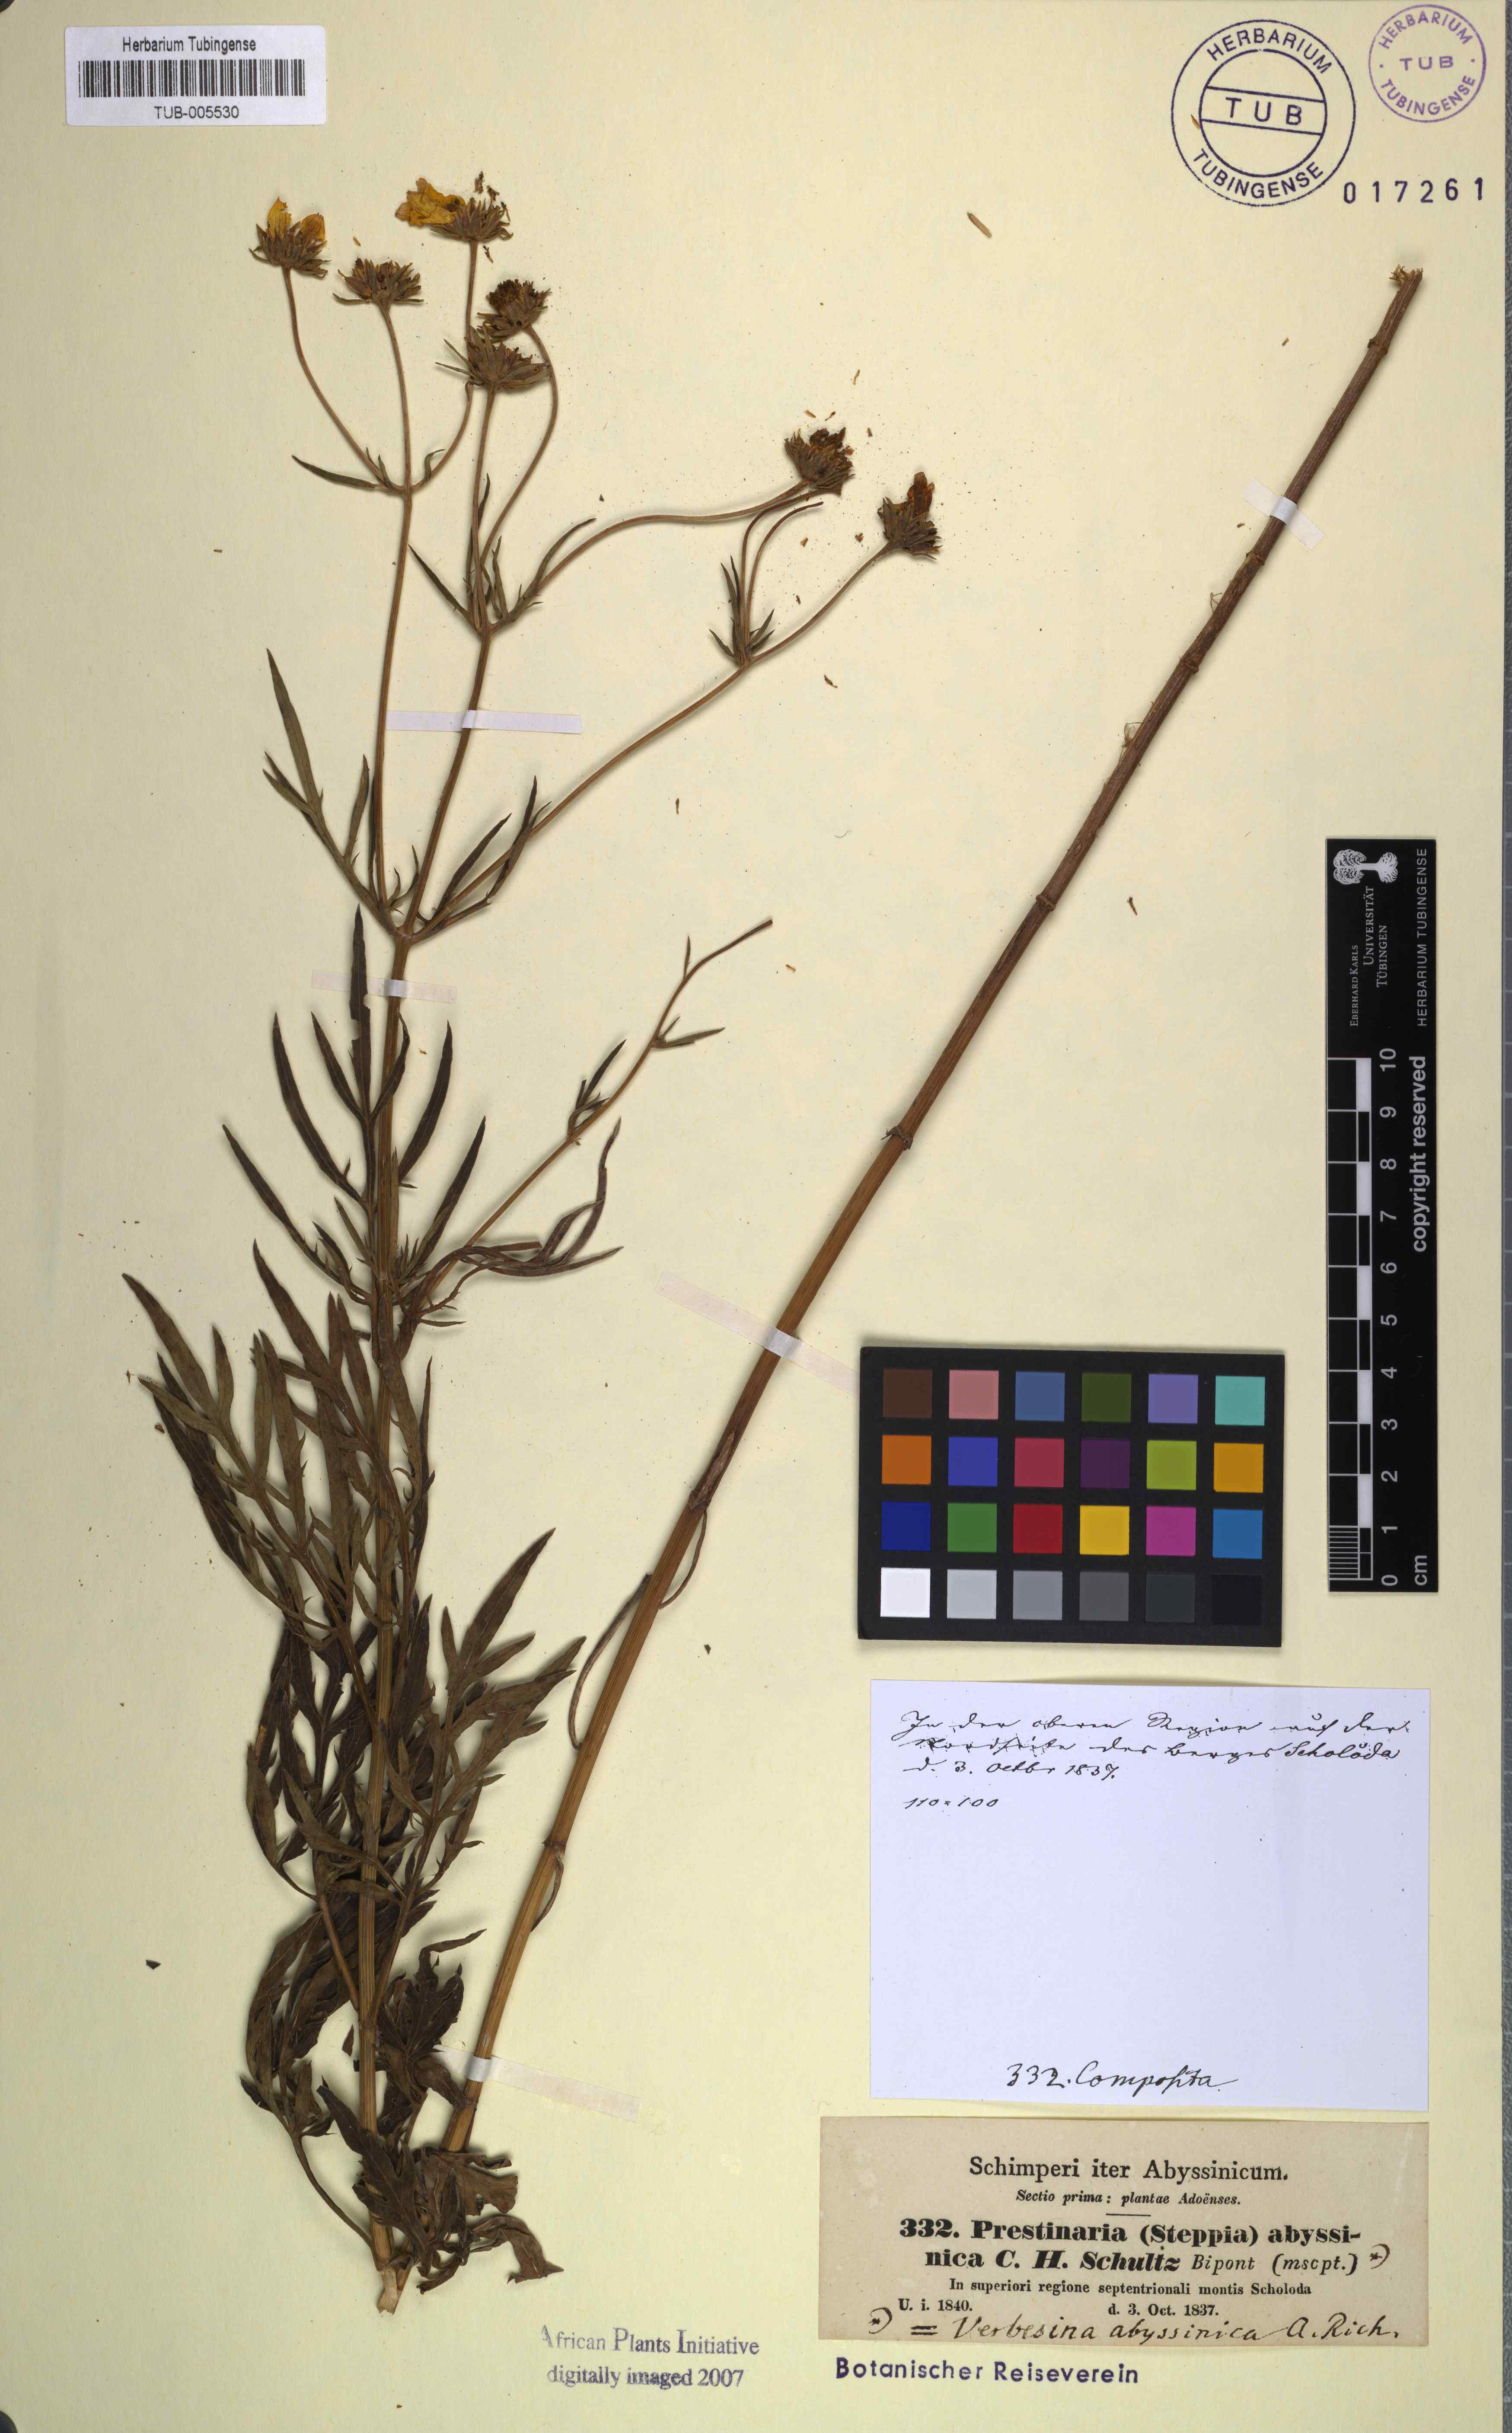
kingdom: Plantae
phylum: Tracheophyta
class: Magnoliopsida
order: Asterales
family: Asteraceae
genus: Bidens
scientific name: Bidens camporum
